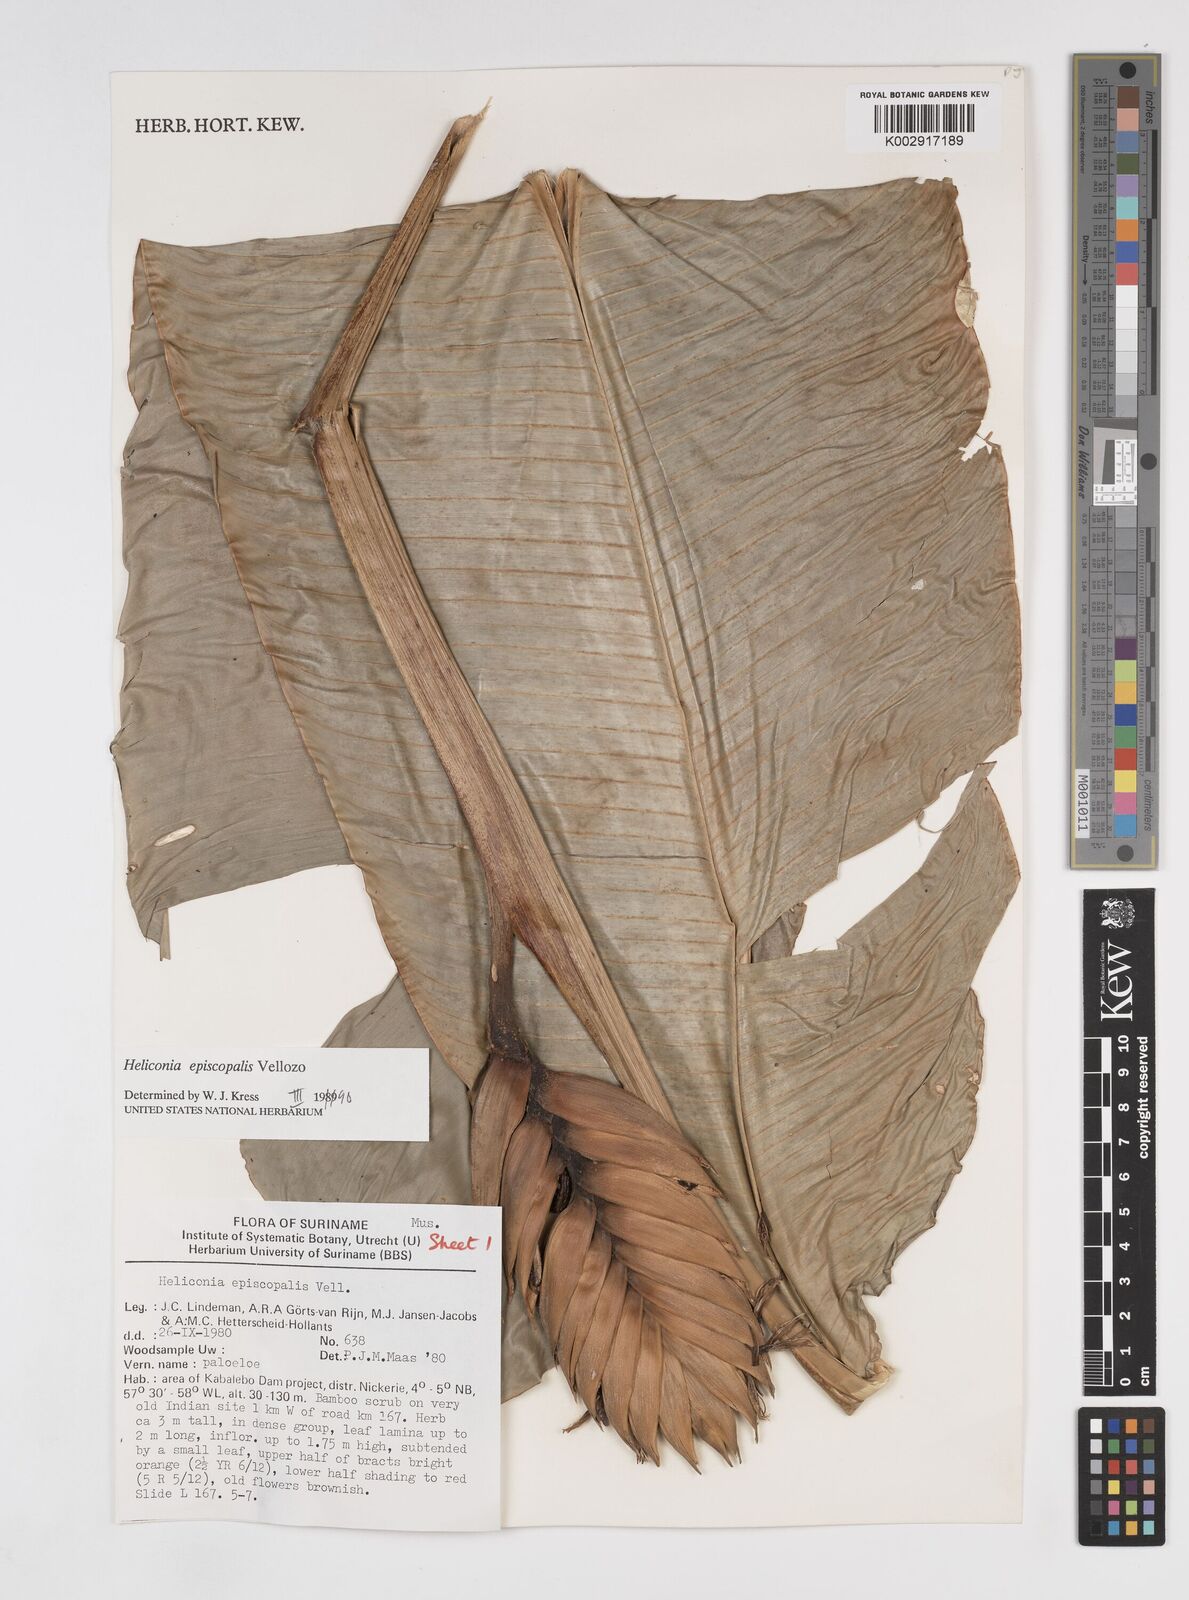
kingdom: Plantae
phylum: Tracheophyta
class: Liliopsida
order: Zingiberales
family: Heliconiaceae
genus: Heliconia
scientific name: Heliconia episcopalis
